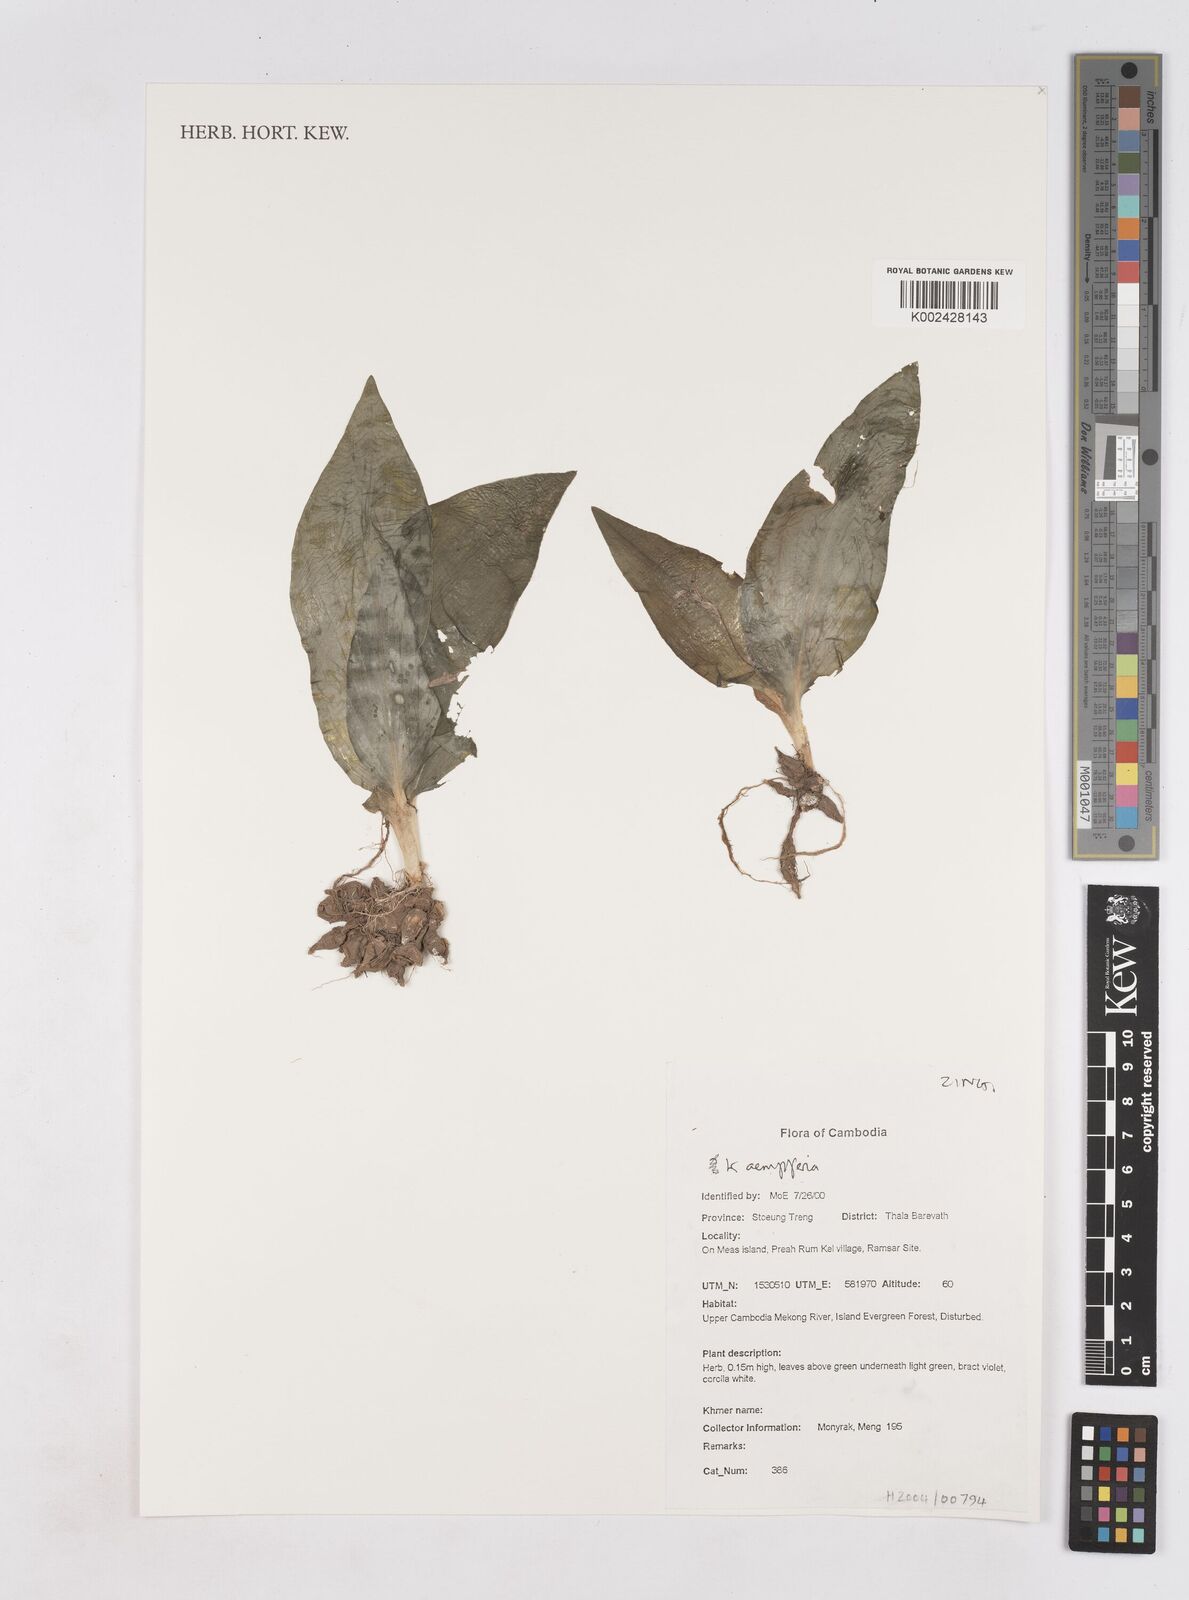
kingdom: Plantae
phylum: Tracheophyta
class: Liliopsida
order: Zingiberales
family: Zingiberaceae
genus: Kaempferia
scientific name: Kaempferia
